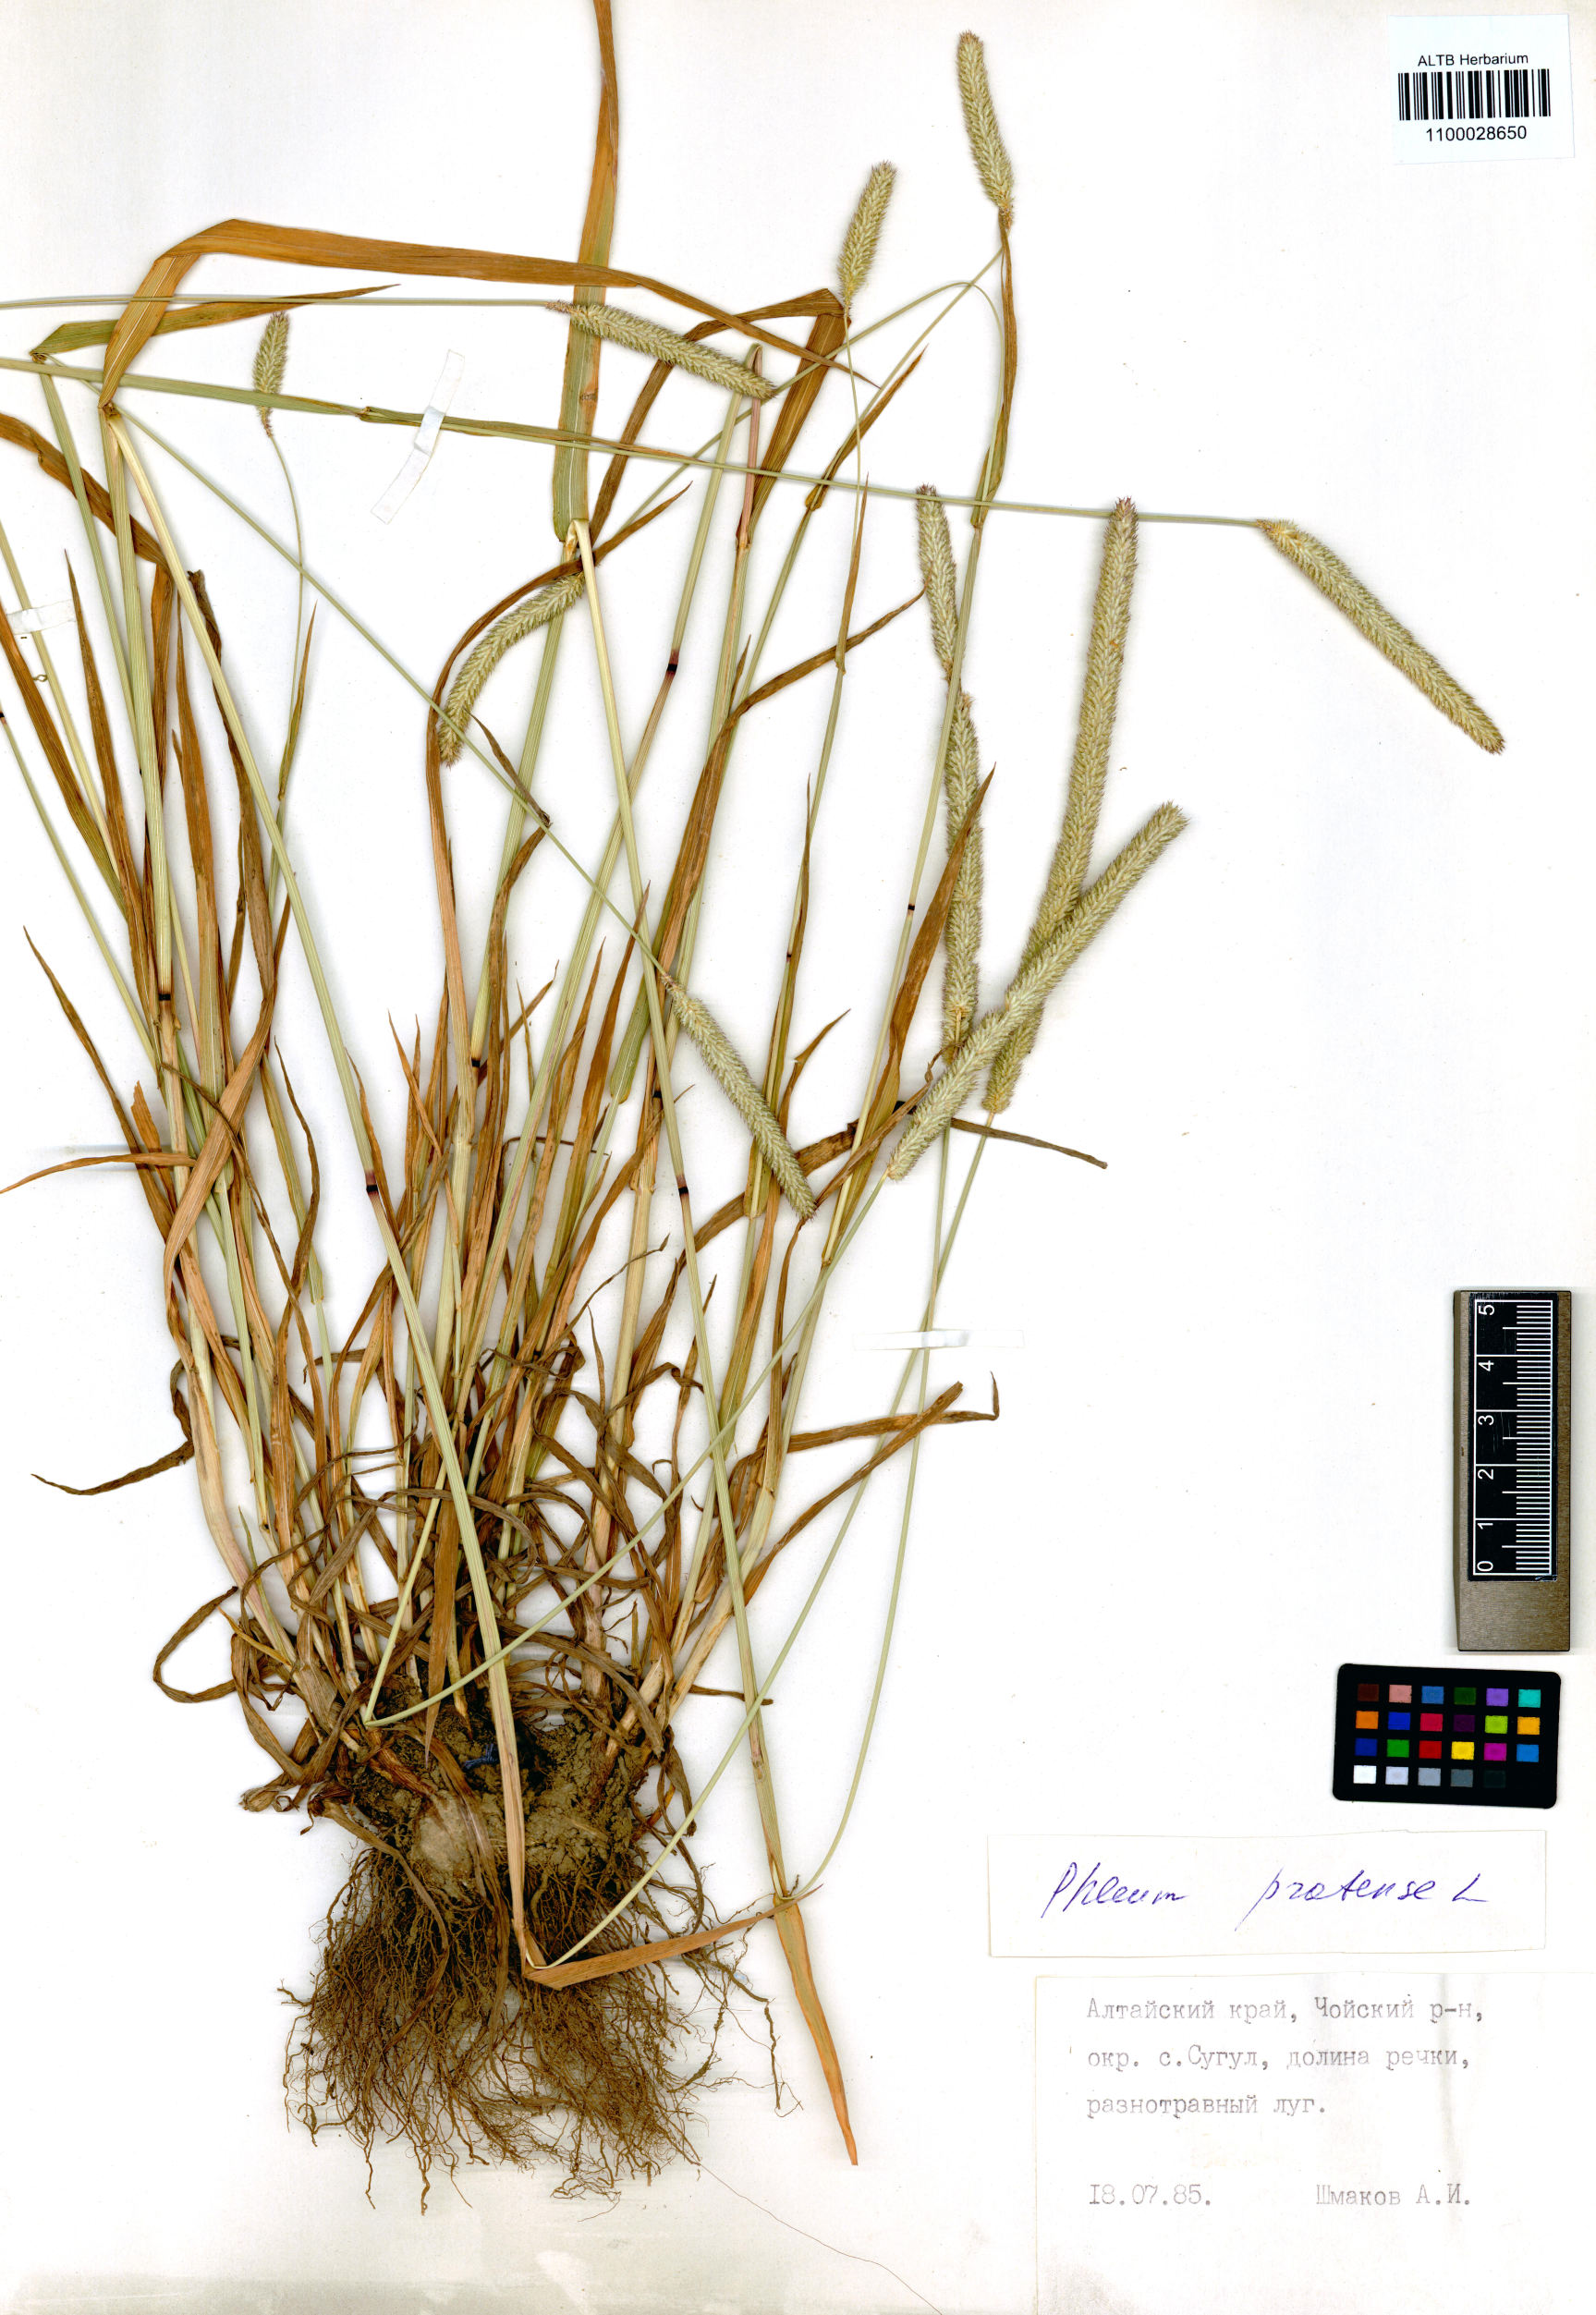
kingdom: Plantae
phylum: Tracheophyta
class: Liliopsida
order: Poales
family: Poaceae
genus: Phleum
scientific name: Phleum pratense
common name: Timothy grass
